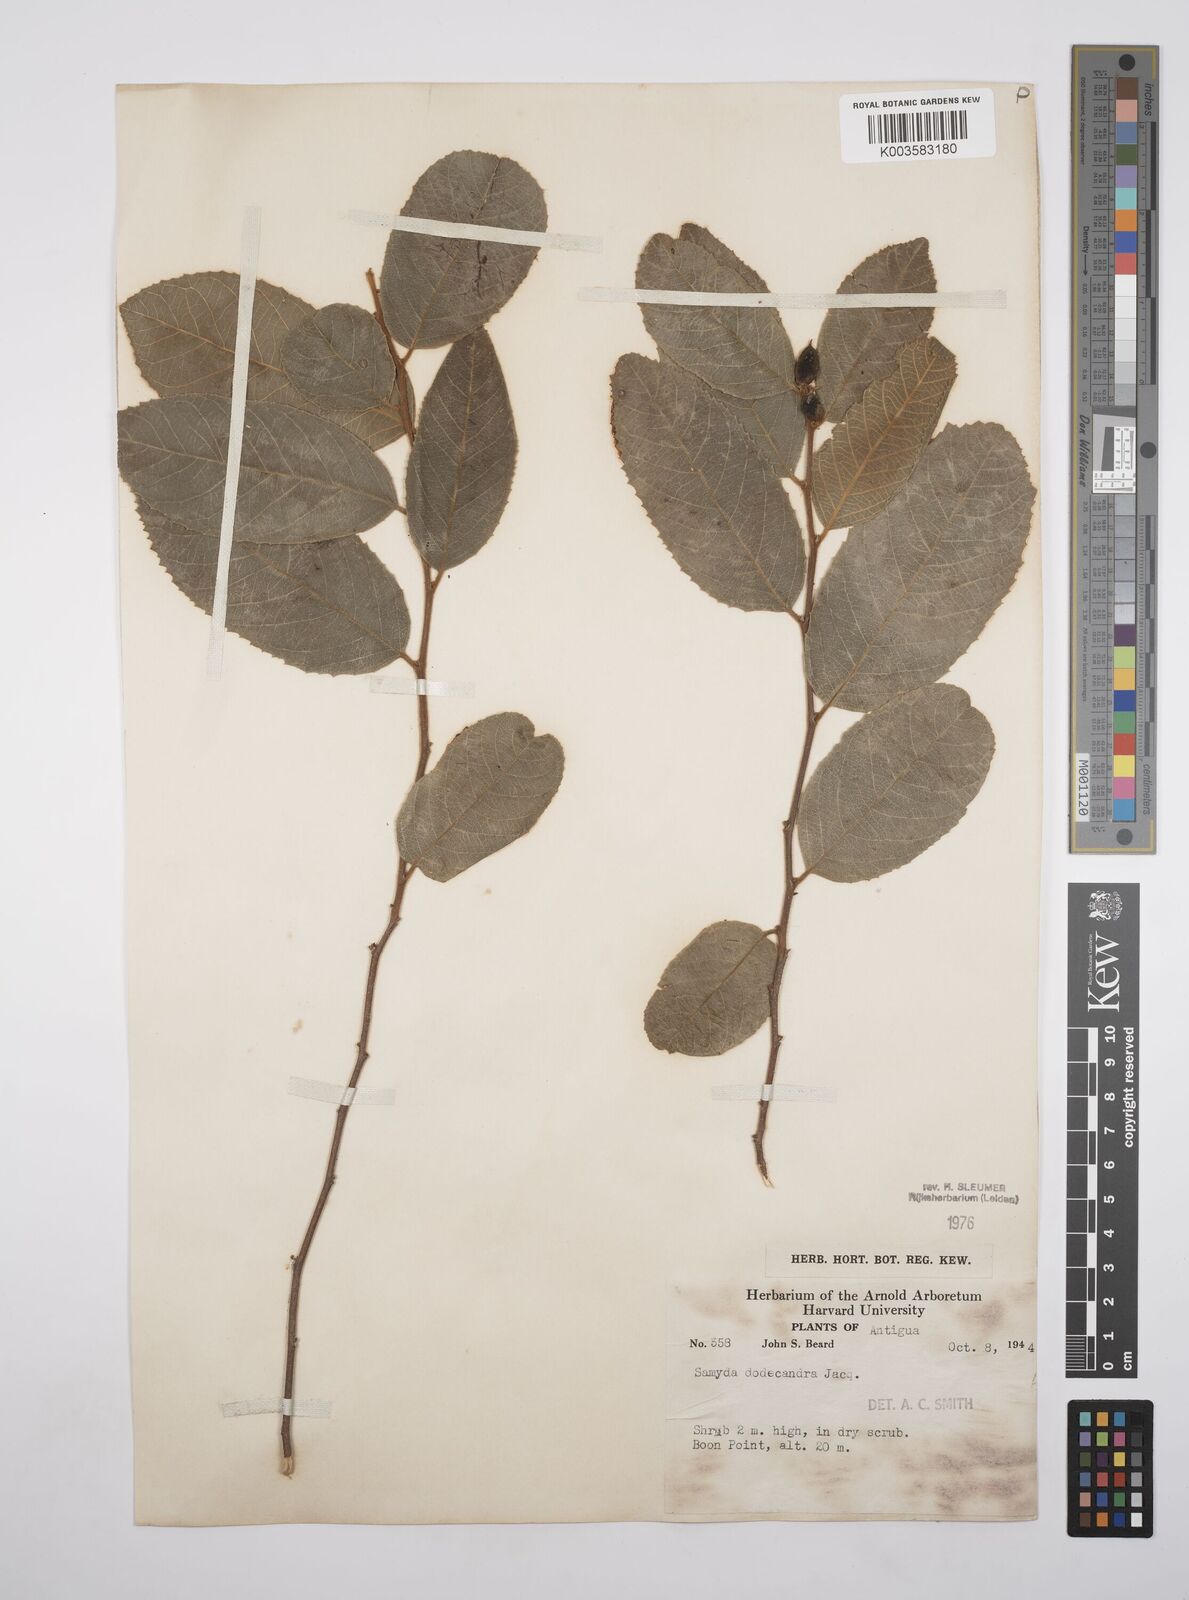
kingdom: Plantae
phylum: Tracheophyta
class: Magnoliopsida
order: Malpighiales
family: Salicaceae
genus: Casearia
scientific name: Casearia dodecandra
